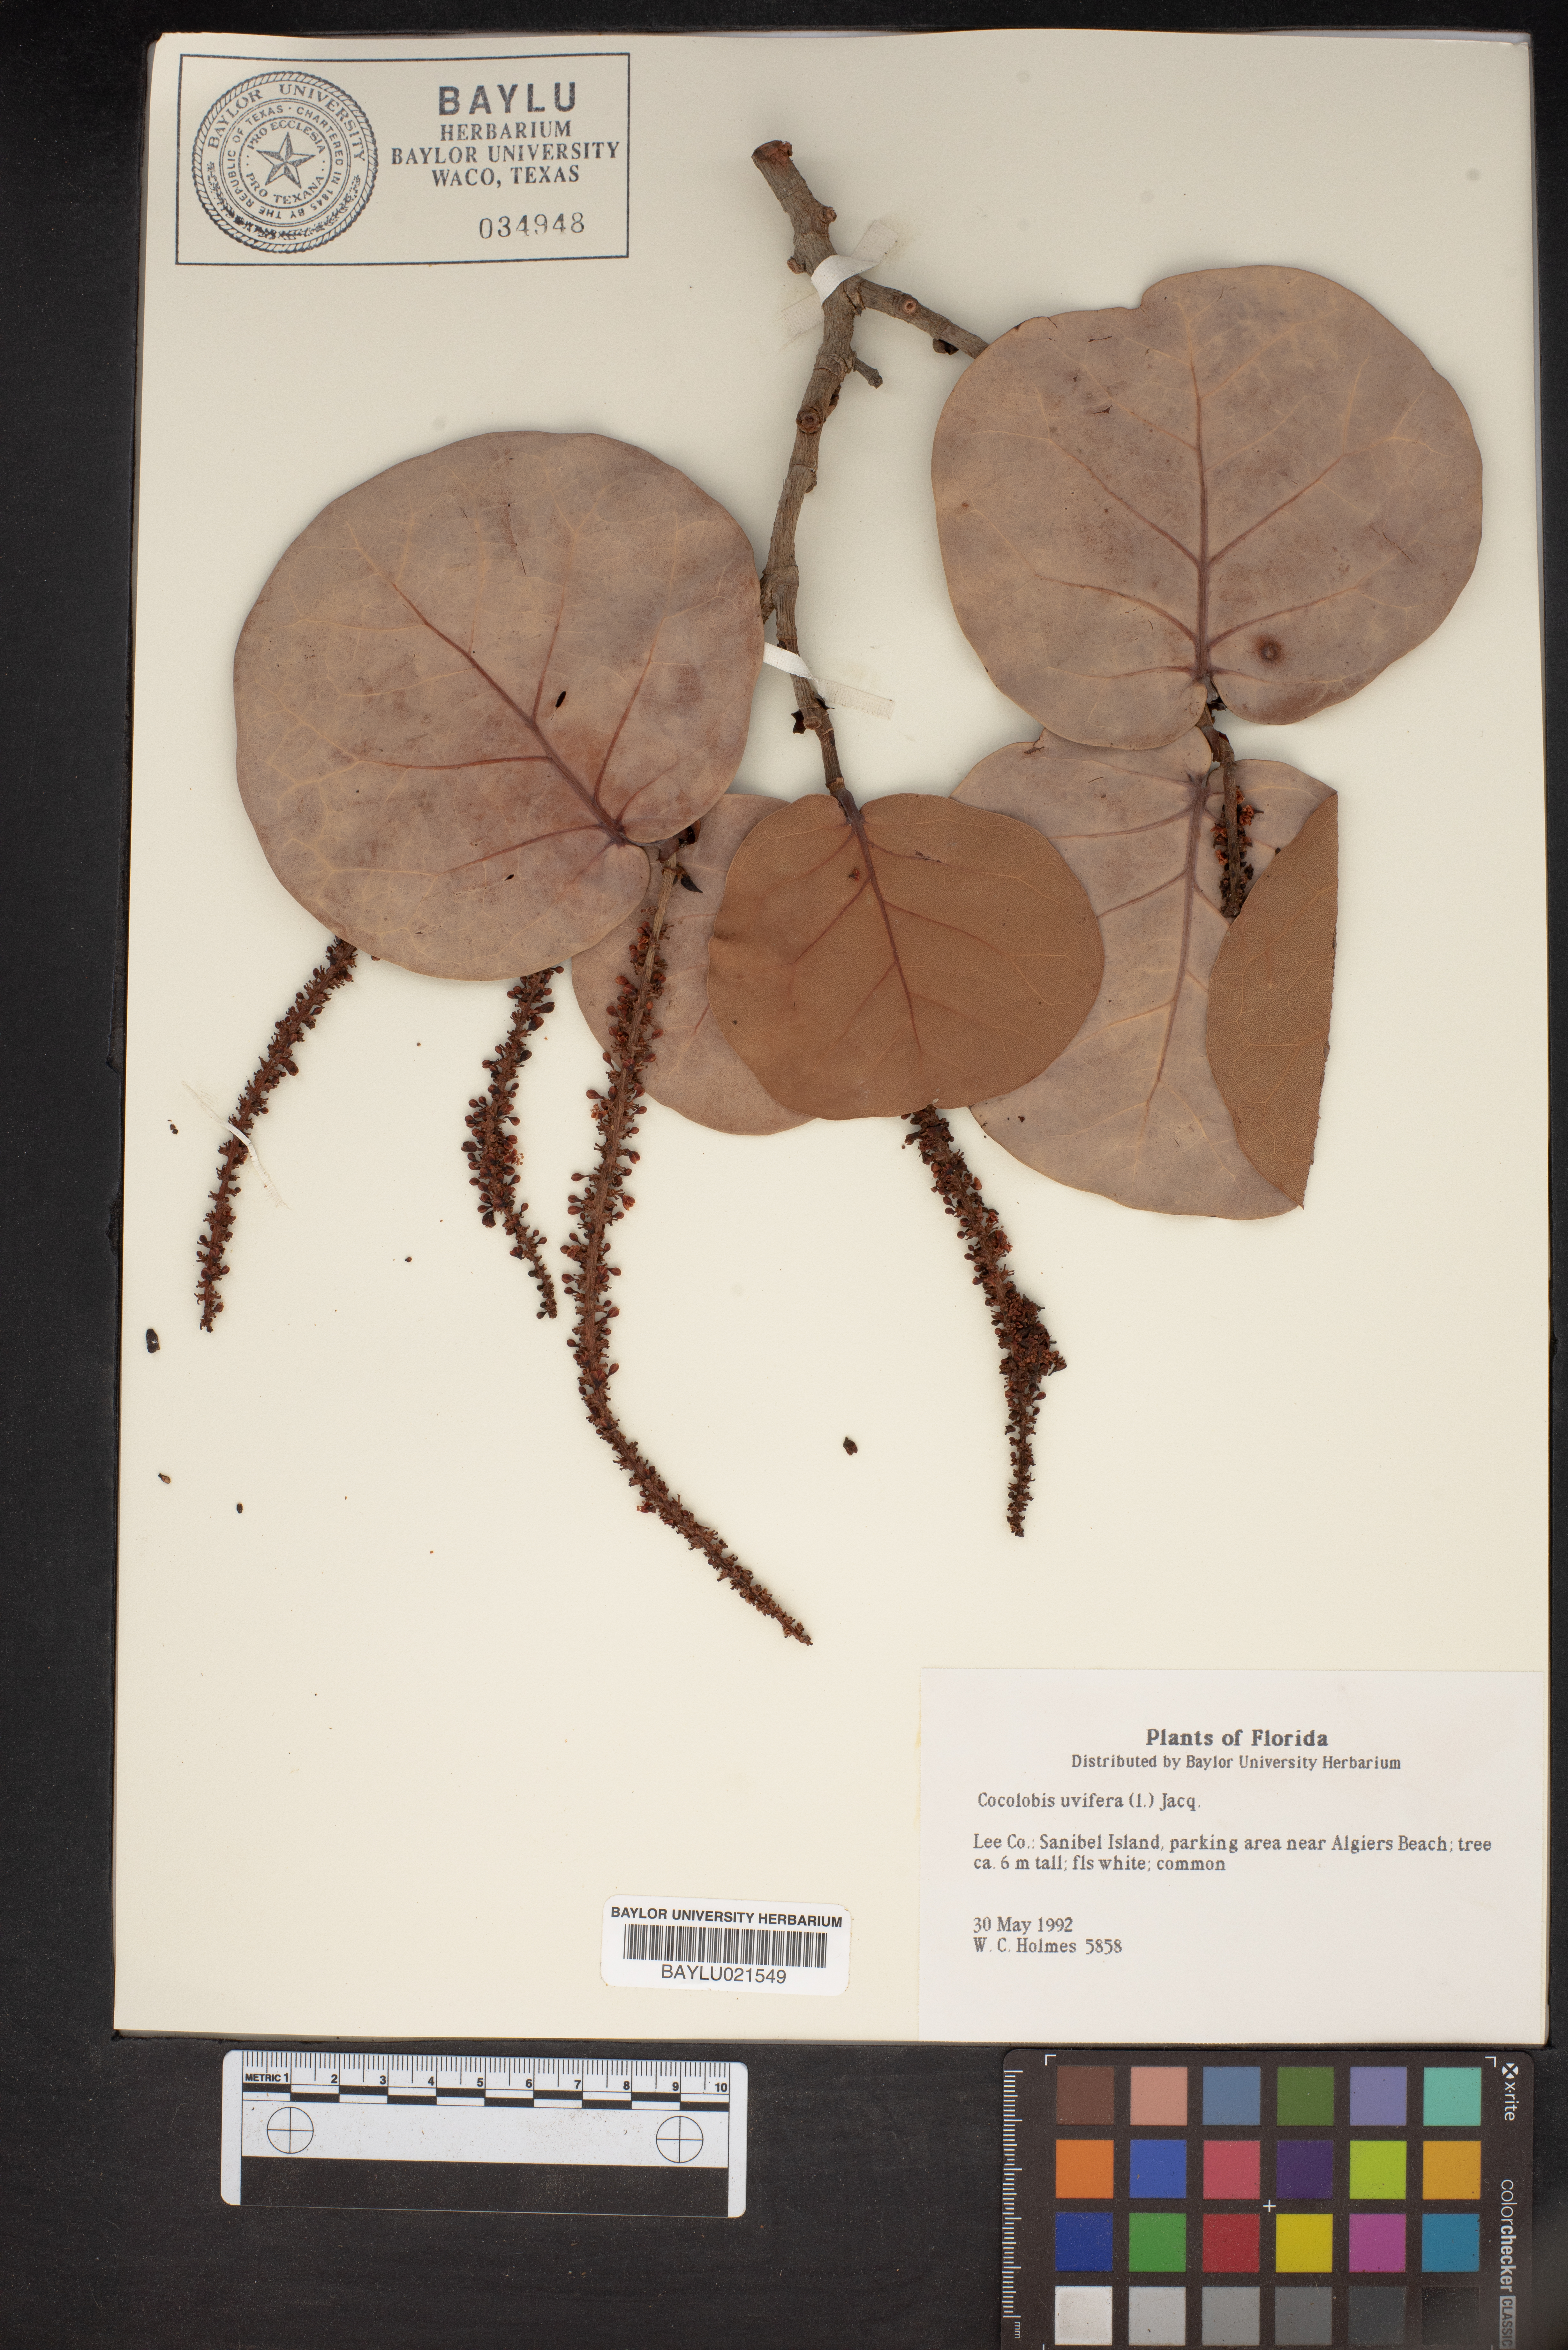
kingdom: Plantae
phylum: Tracheophyta
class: Magnoliopsida
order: Caryophyllales
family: Polygonaceae
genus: Coccoloba
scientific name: Coccoloba uvifera
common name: Seagrape
